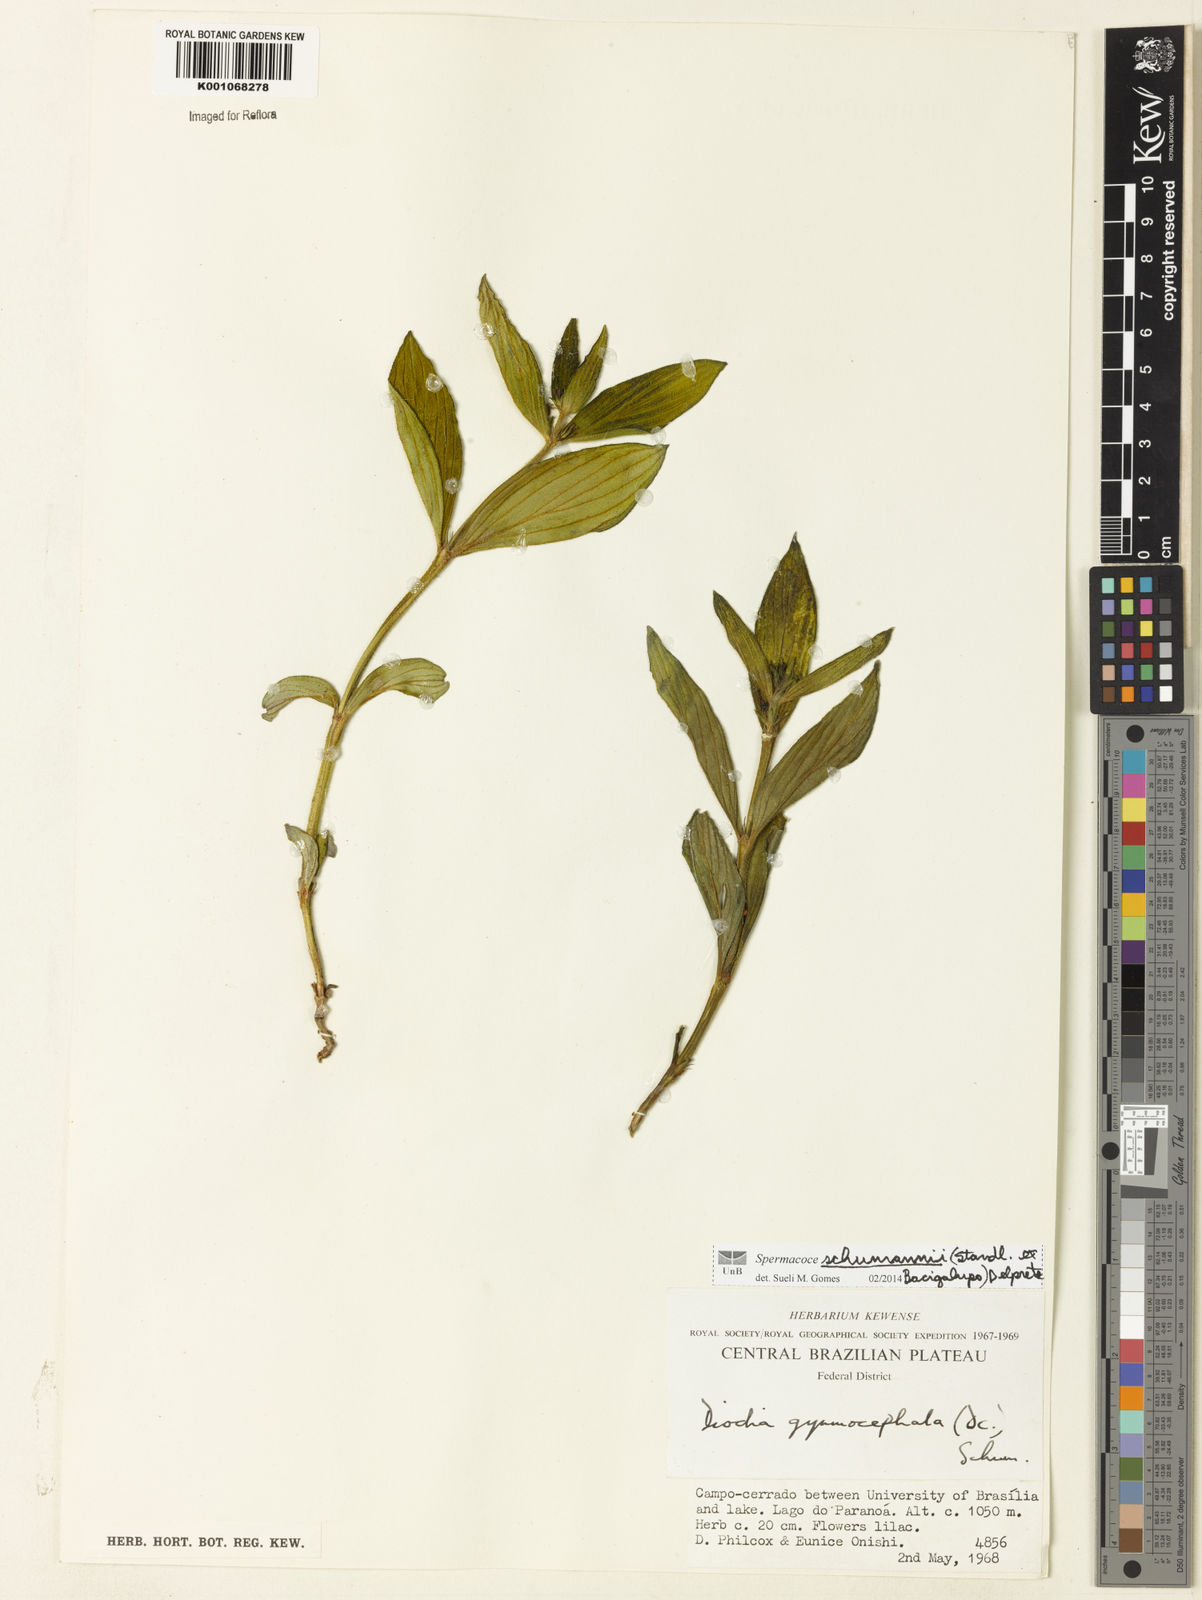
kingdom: Plantae
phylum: Tracheophyta
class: Magnoliopsida
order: Gentianales
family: Rubiaceae
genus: Spermacoce
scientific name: Spermacoce schumannii
